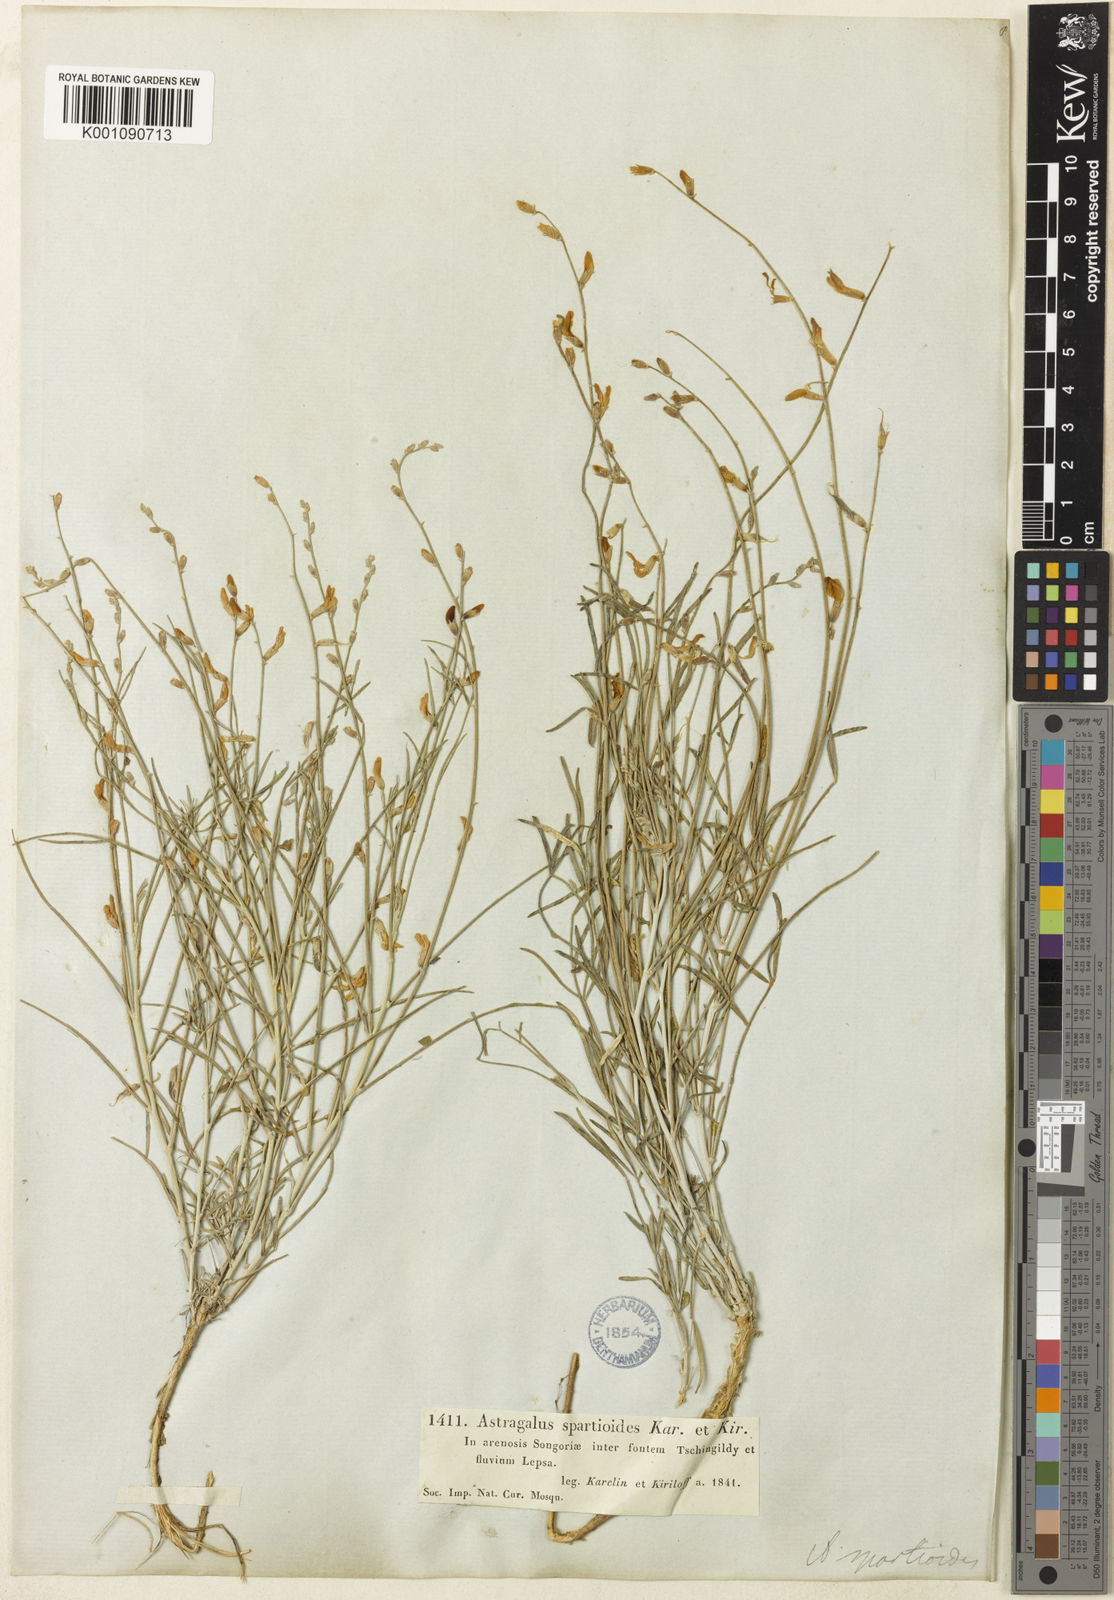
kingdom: Plantae
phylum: Tracheophyta
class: Magnoliopsida
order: Fabales
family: Fabaceae
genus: Astragalus
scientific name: Astragalus
